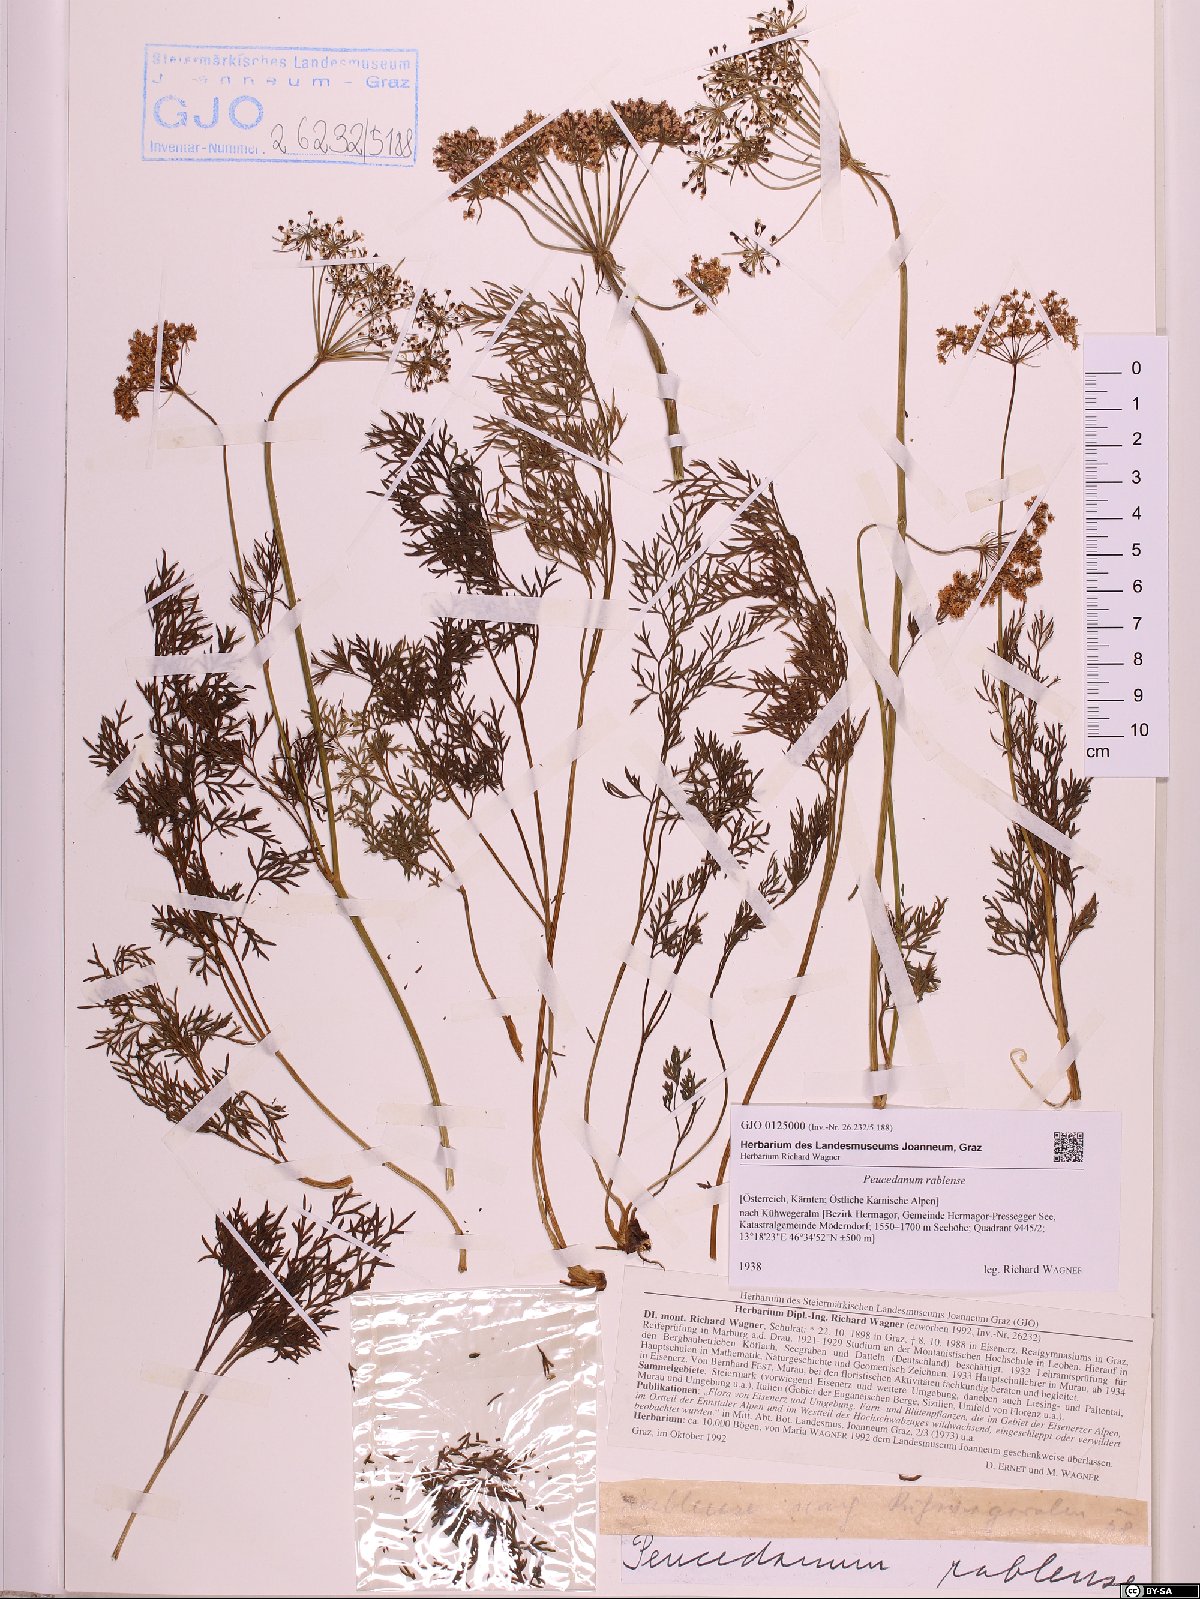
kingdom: Plantae
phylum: Tracheophyta
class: Magnoliopsida
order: Apiales
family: Apiaceae
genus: Peucedanum
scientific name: Peucedanum rablense
